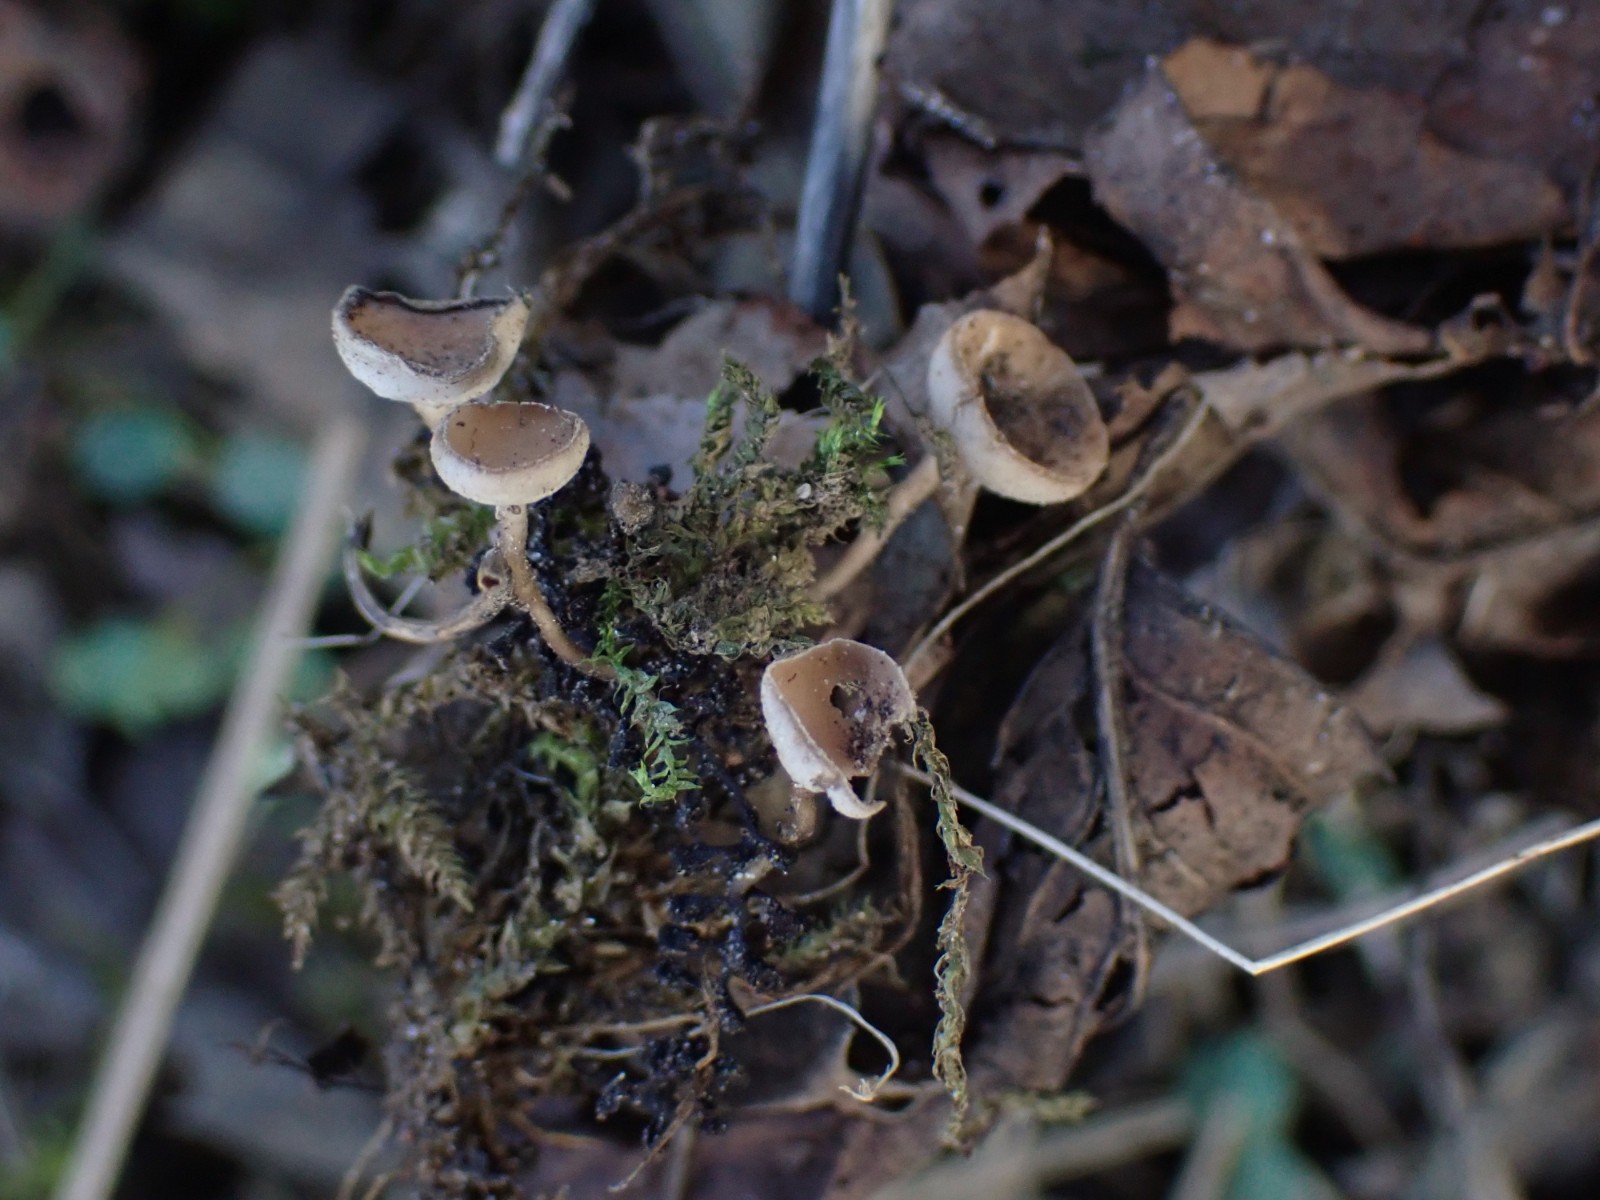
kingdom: Fungi
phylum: Ascomycota
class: Leotiomycetes
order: Helotiales
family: Sclerotiniaceae
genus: Ciboria
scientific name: Ciboria amentacea
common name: ellerakle-knoldskive
